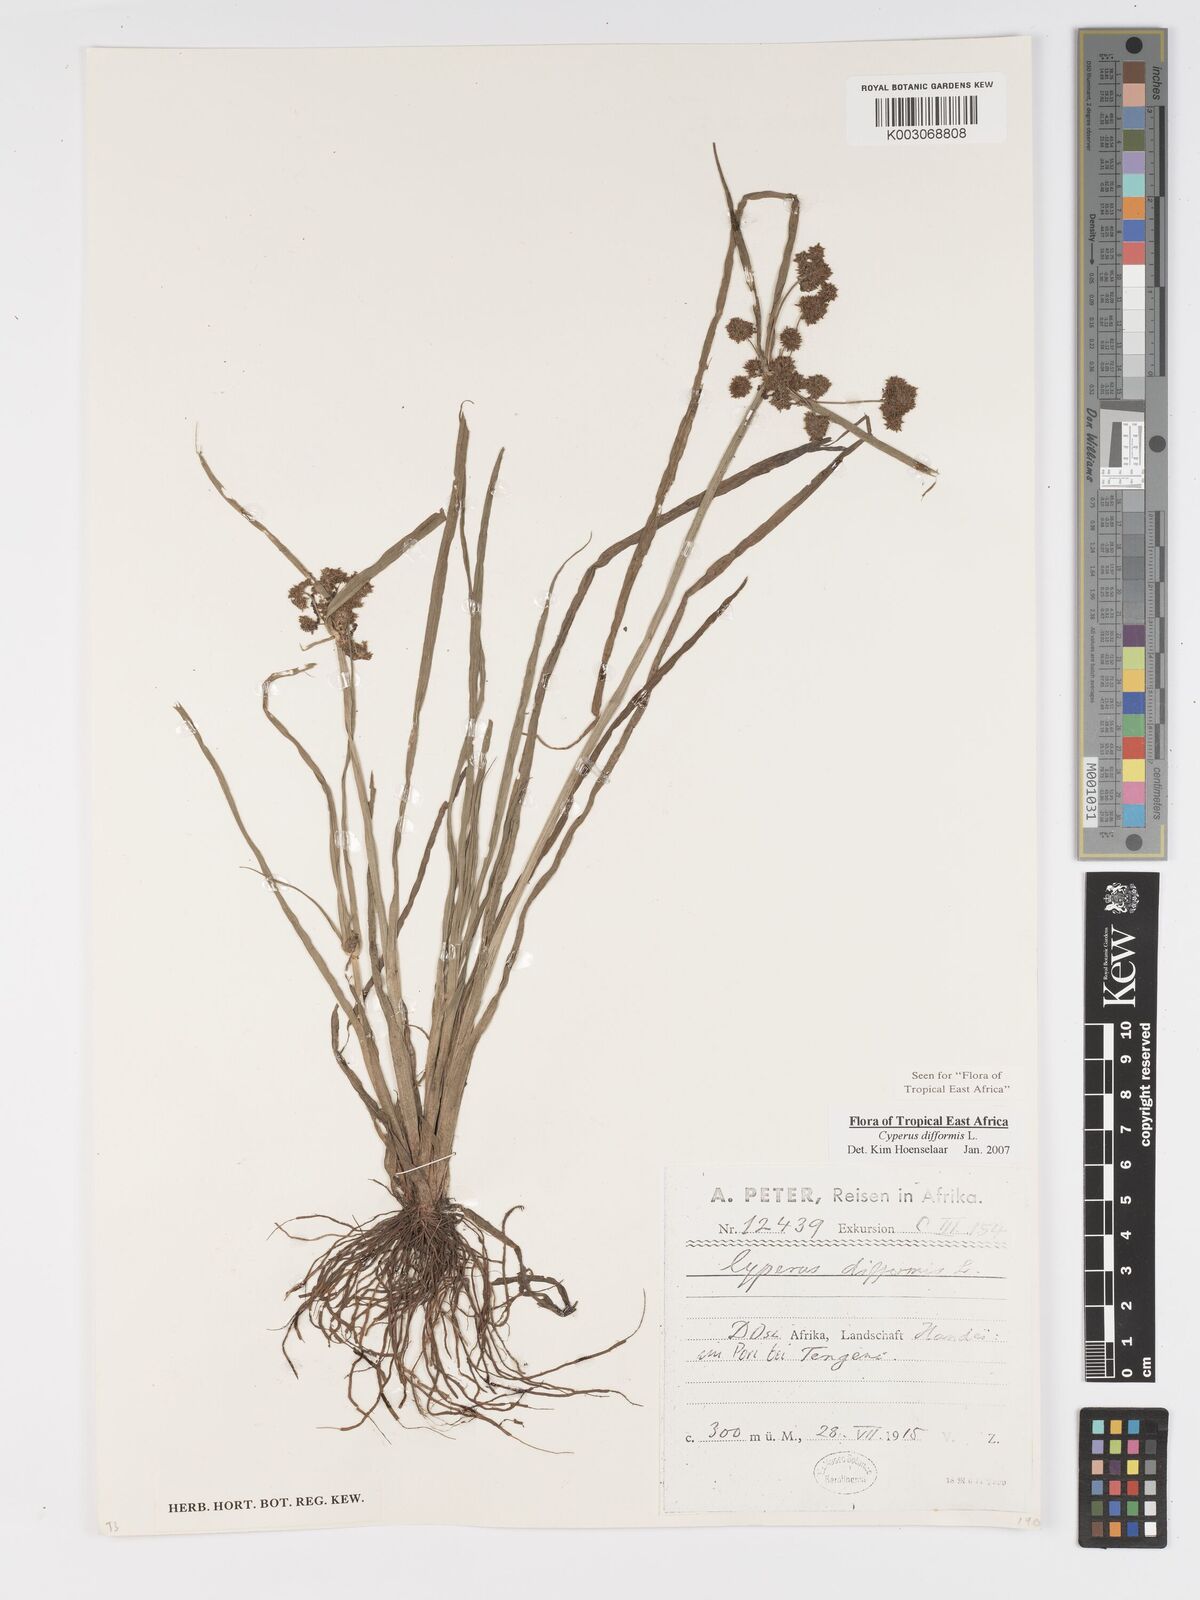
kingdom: Plantae
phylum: Tracheophyta
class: Liliopsida
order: Poales
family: Cyperaceae
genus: Cyperus
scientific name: Cyperus difformis
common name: Variable flatsedge
